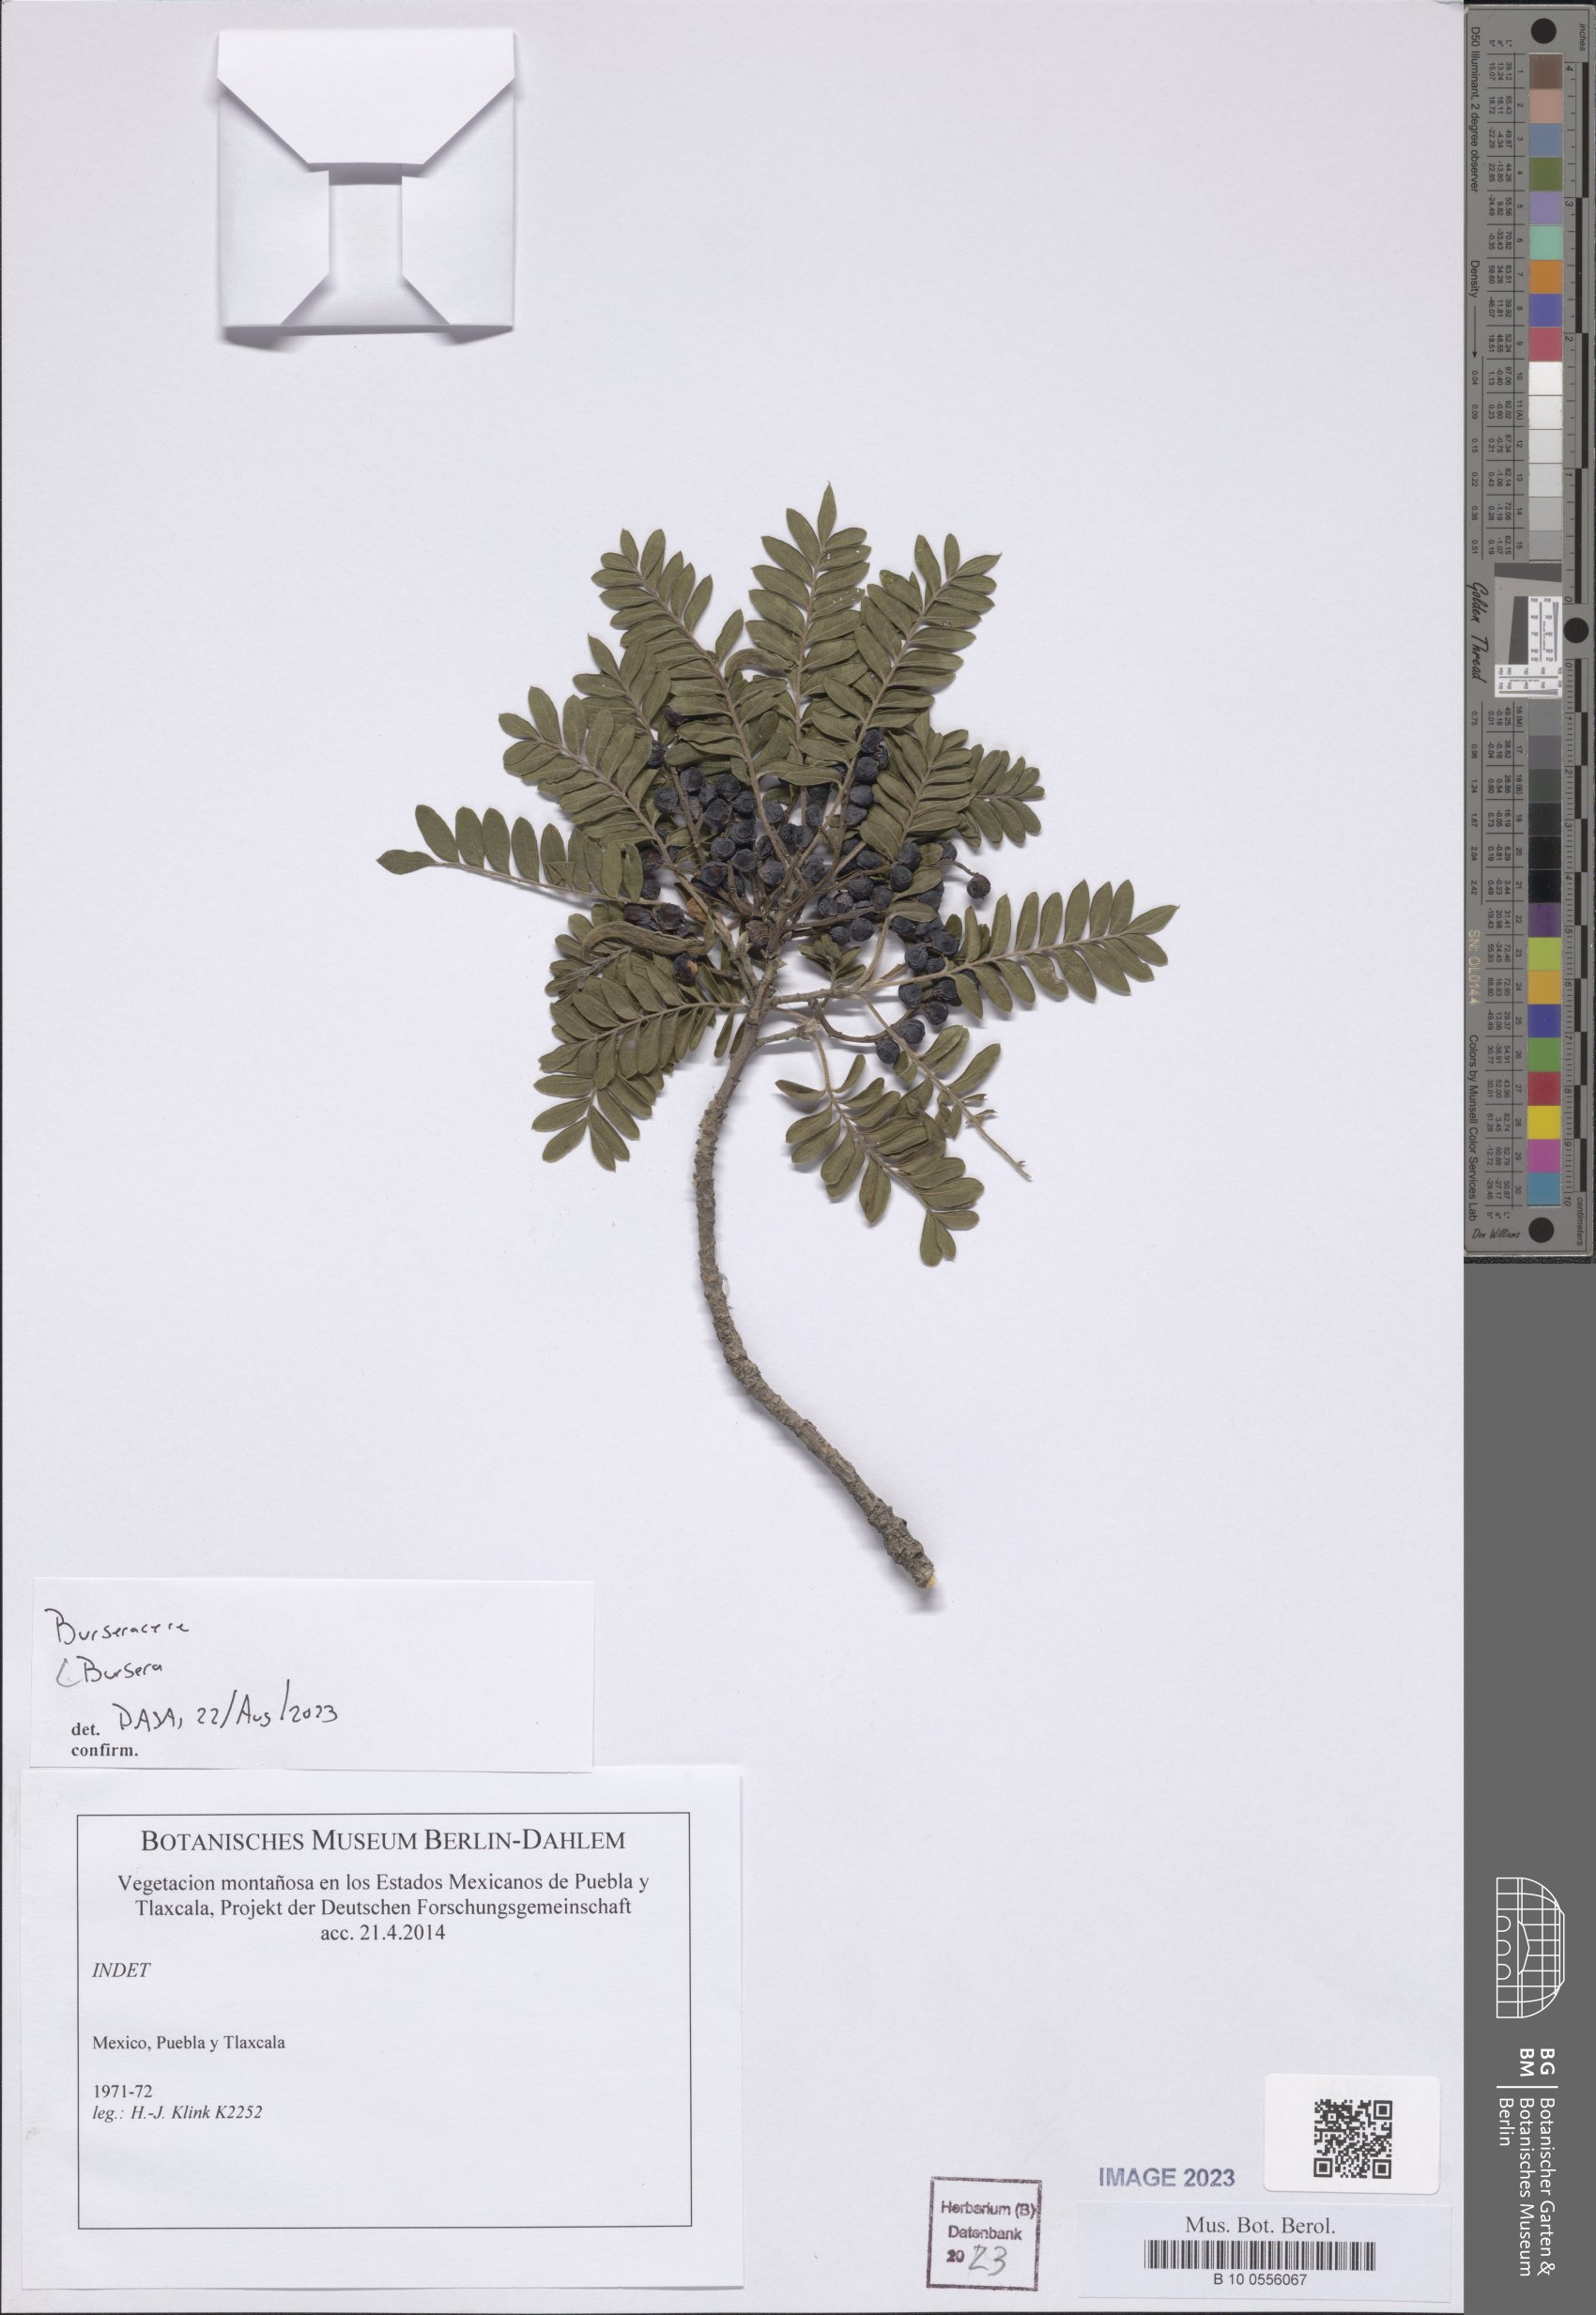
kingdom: Plantae
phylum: Tracheophyta
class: Magnoliopsida
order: Sapindales
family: Burseraceae
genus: Bursera
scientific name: Bursera
